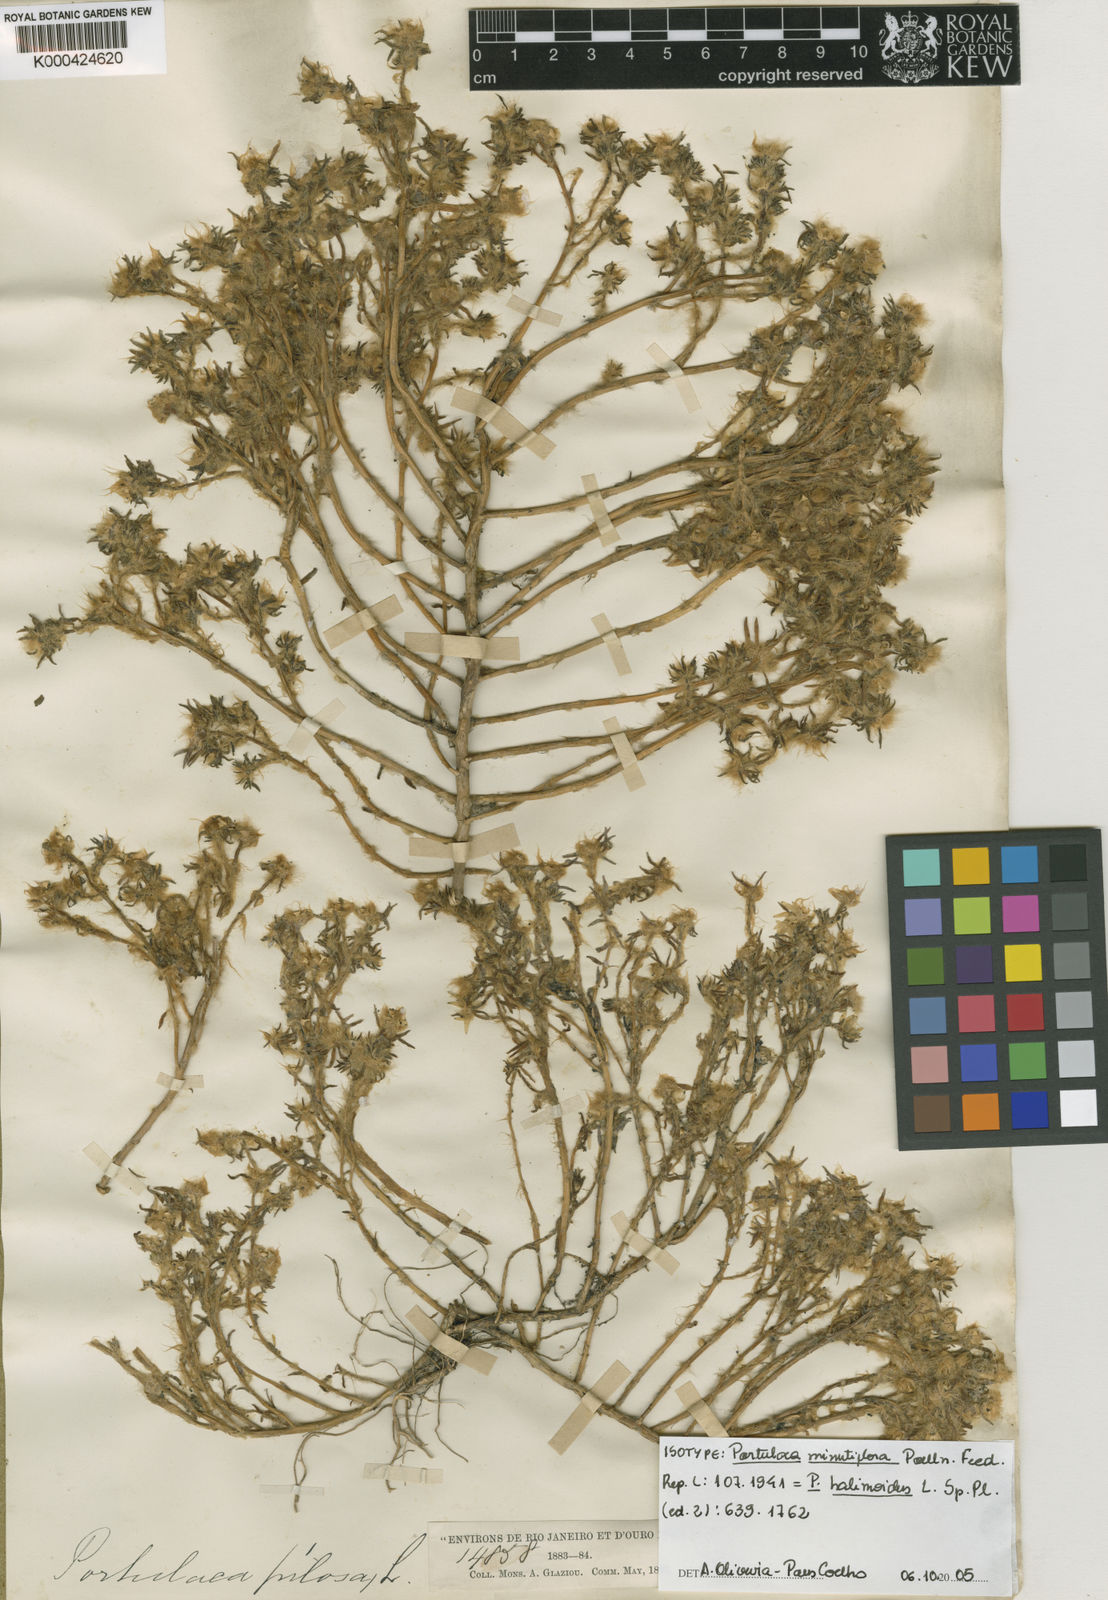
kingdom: Plantae
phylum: Tracheophyta
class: Magnoliopsida
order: Caryophyllales
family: Portulacaceae
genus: Portulaca
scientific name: Portulaca halimoides
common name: Silk cotton purslane
